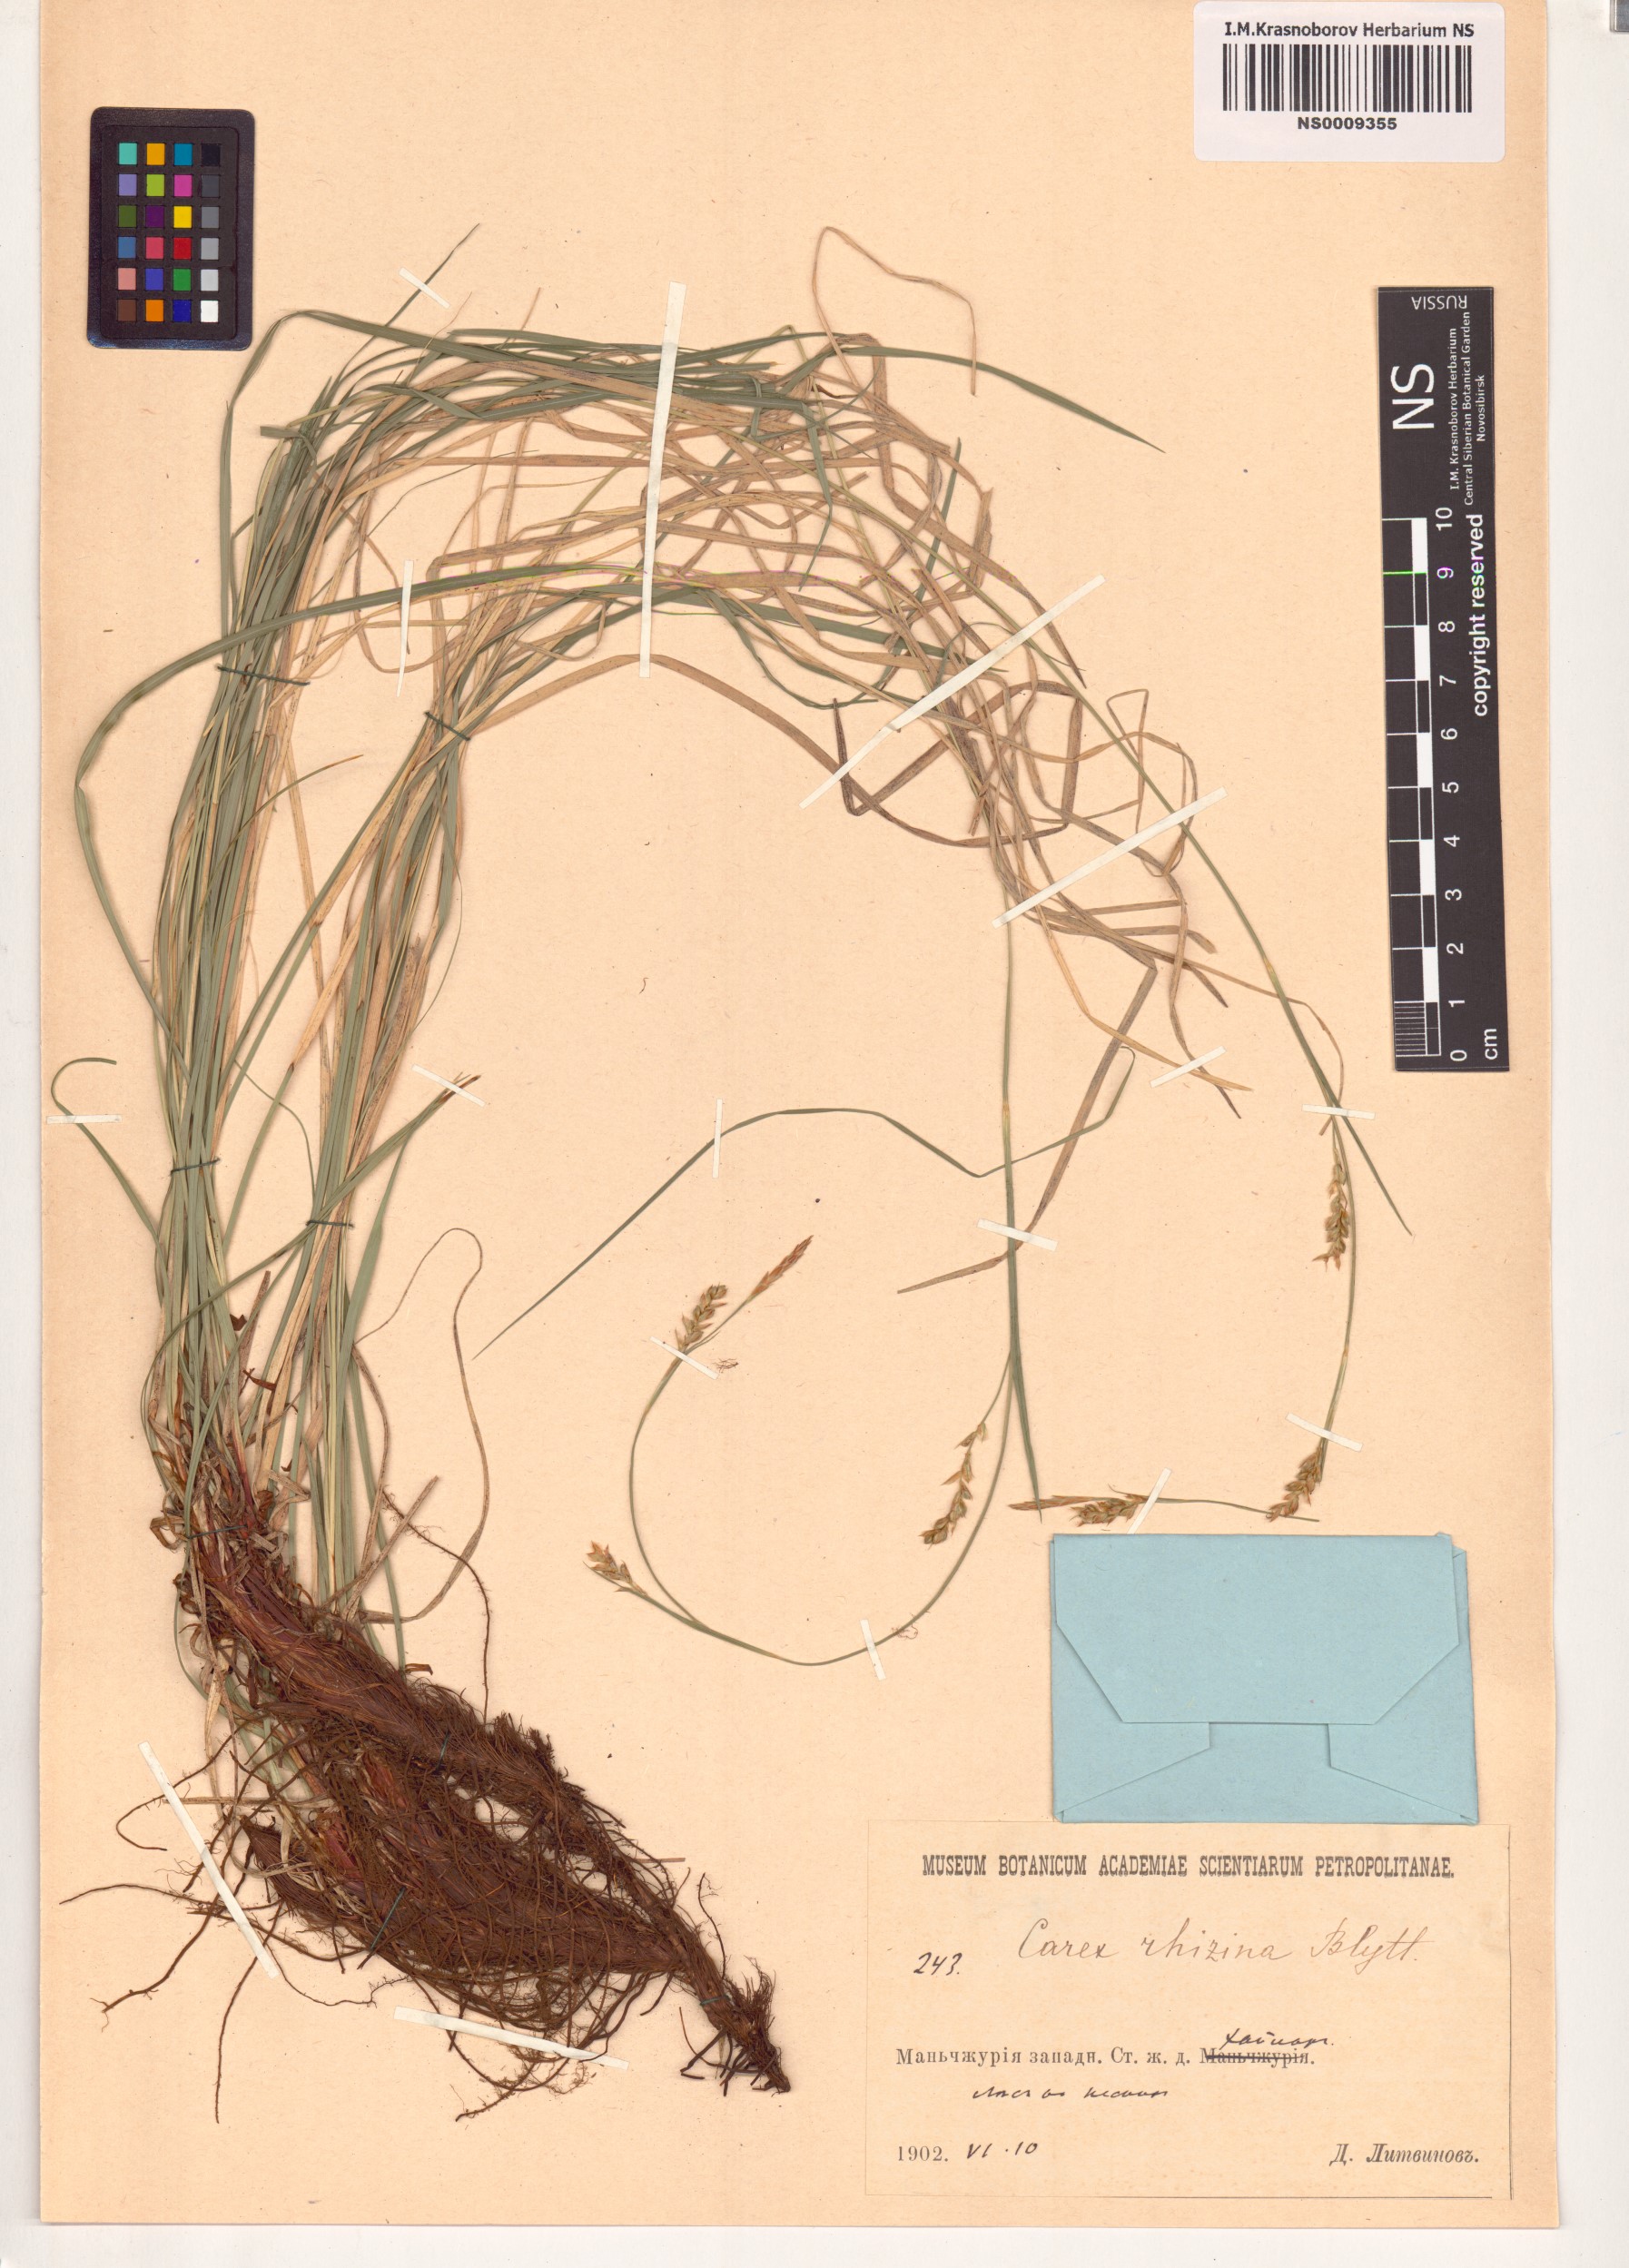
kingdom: Plantae
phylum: Tracheophyta
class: Liliopsida
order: Poales
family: Cyperaceae
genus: Carex
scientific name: Carex rhizina
